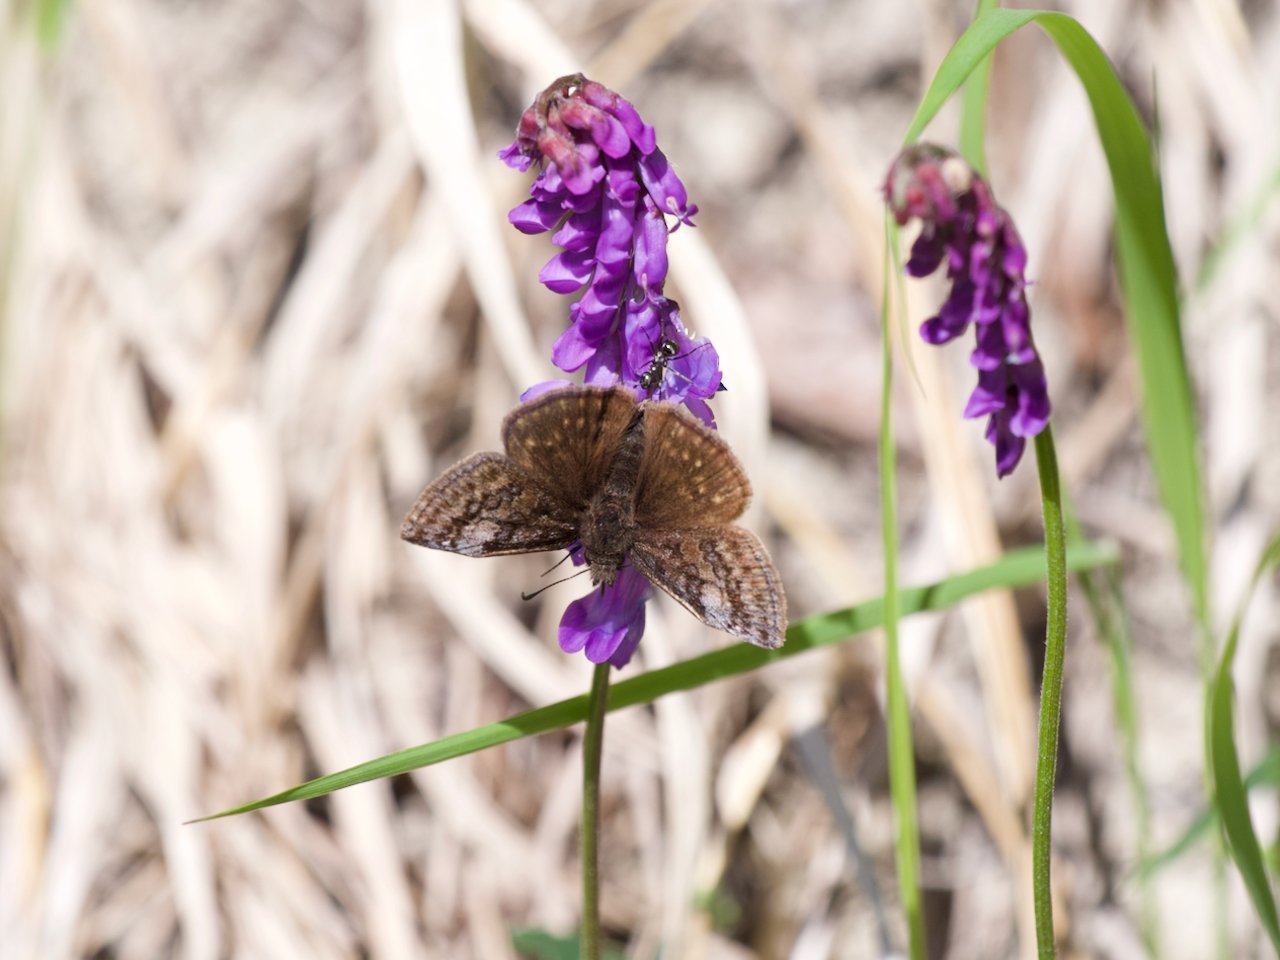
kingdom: Animalia
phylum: Arthropoda
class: Insecta
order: Lepidoptera
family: Hesperiidae
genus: Erynnis
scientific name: Erynnis icelus
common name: Dreamy Duskywing
